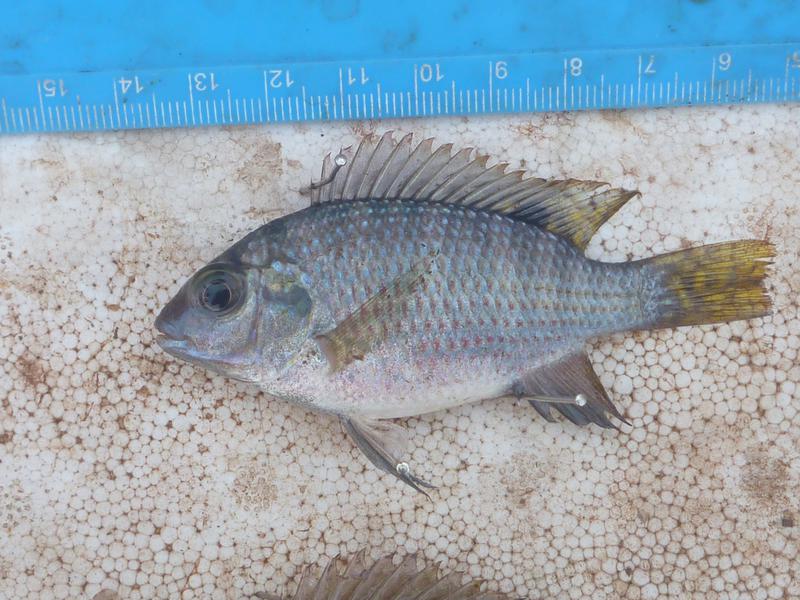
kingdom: Animalia
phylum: Chordata
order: Perciformes
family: Cichlidae
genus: Coptodon
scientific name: Coptodon rendalli
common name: Redbreast tilapia
